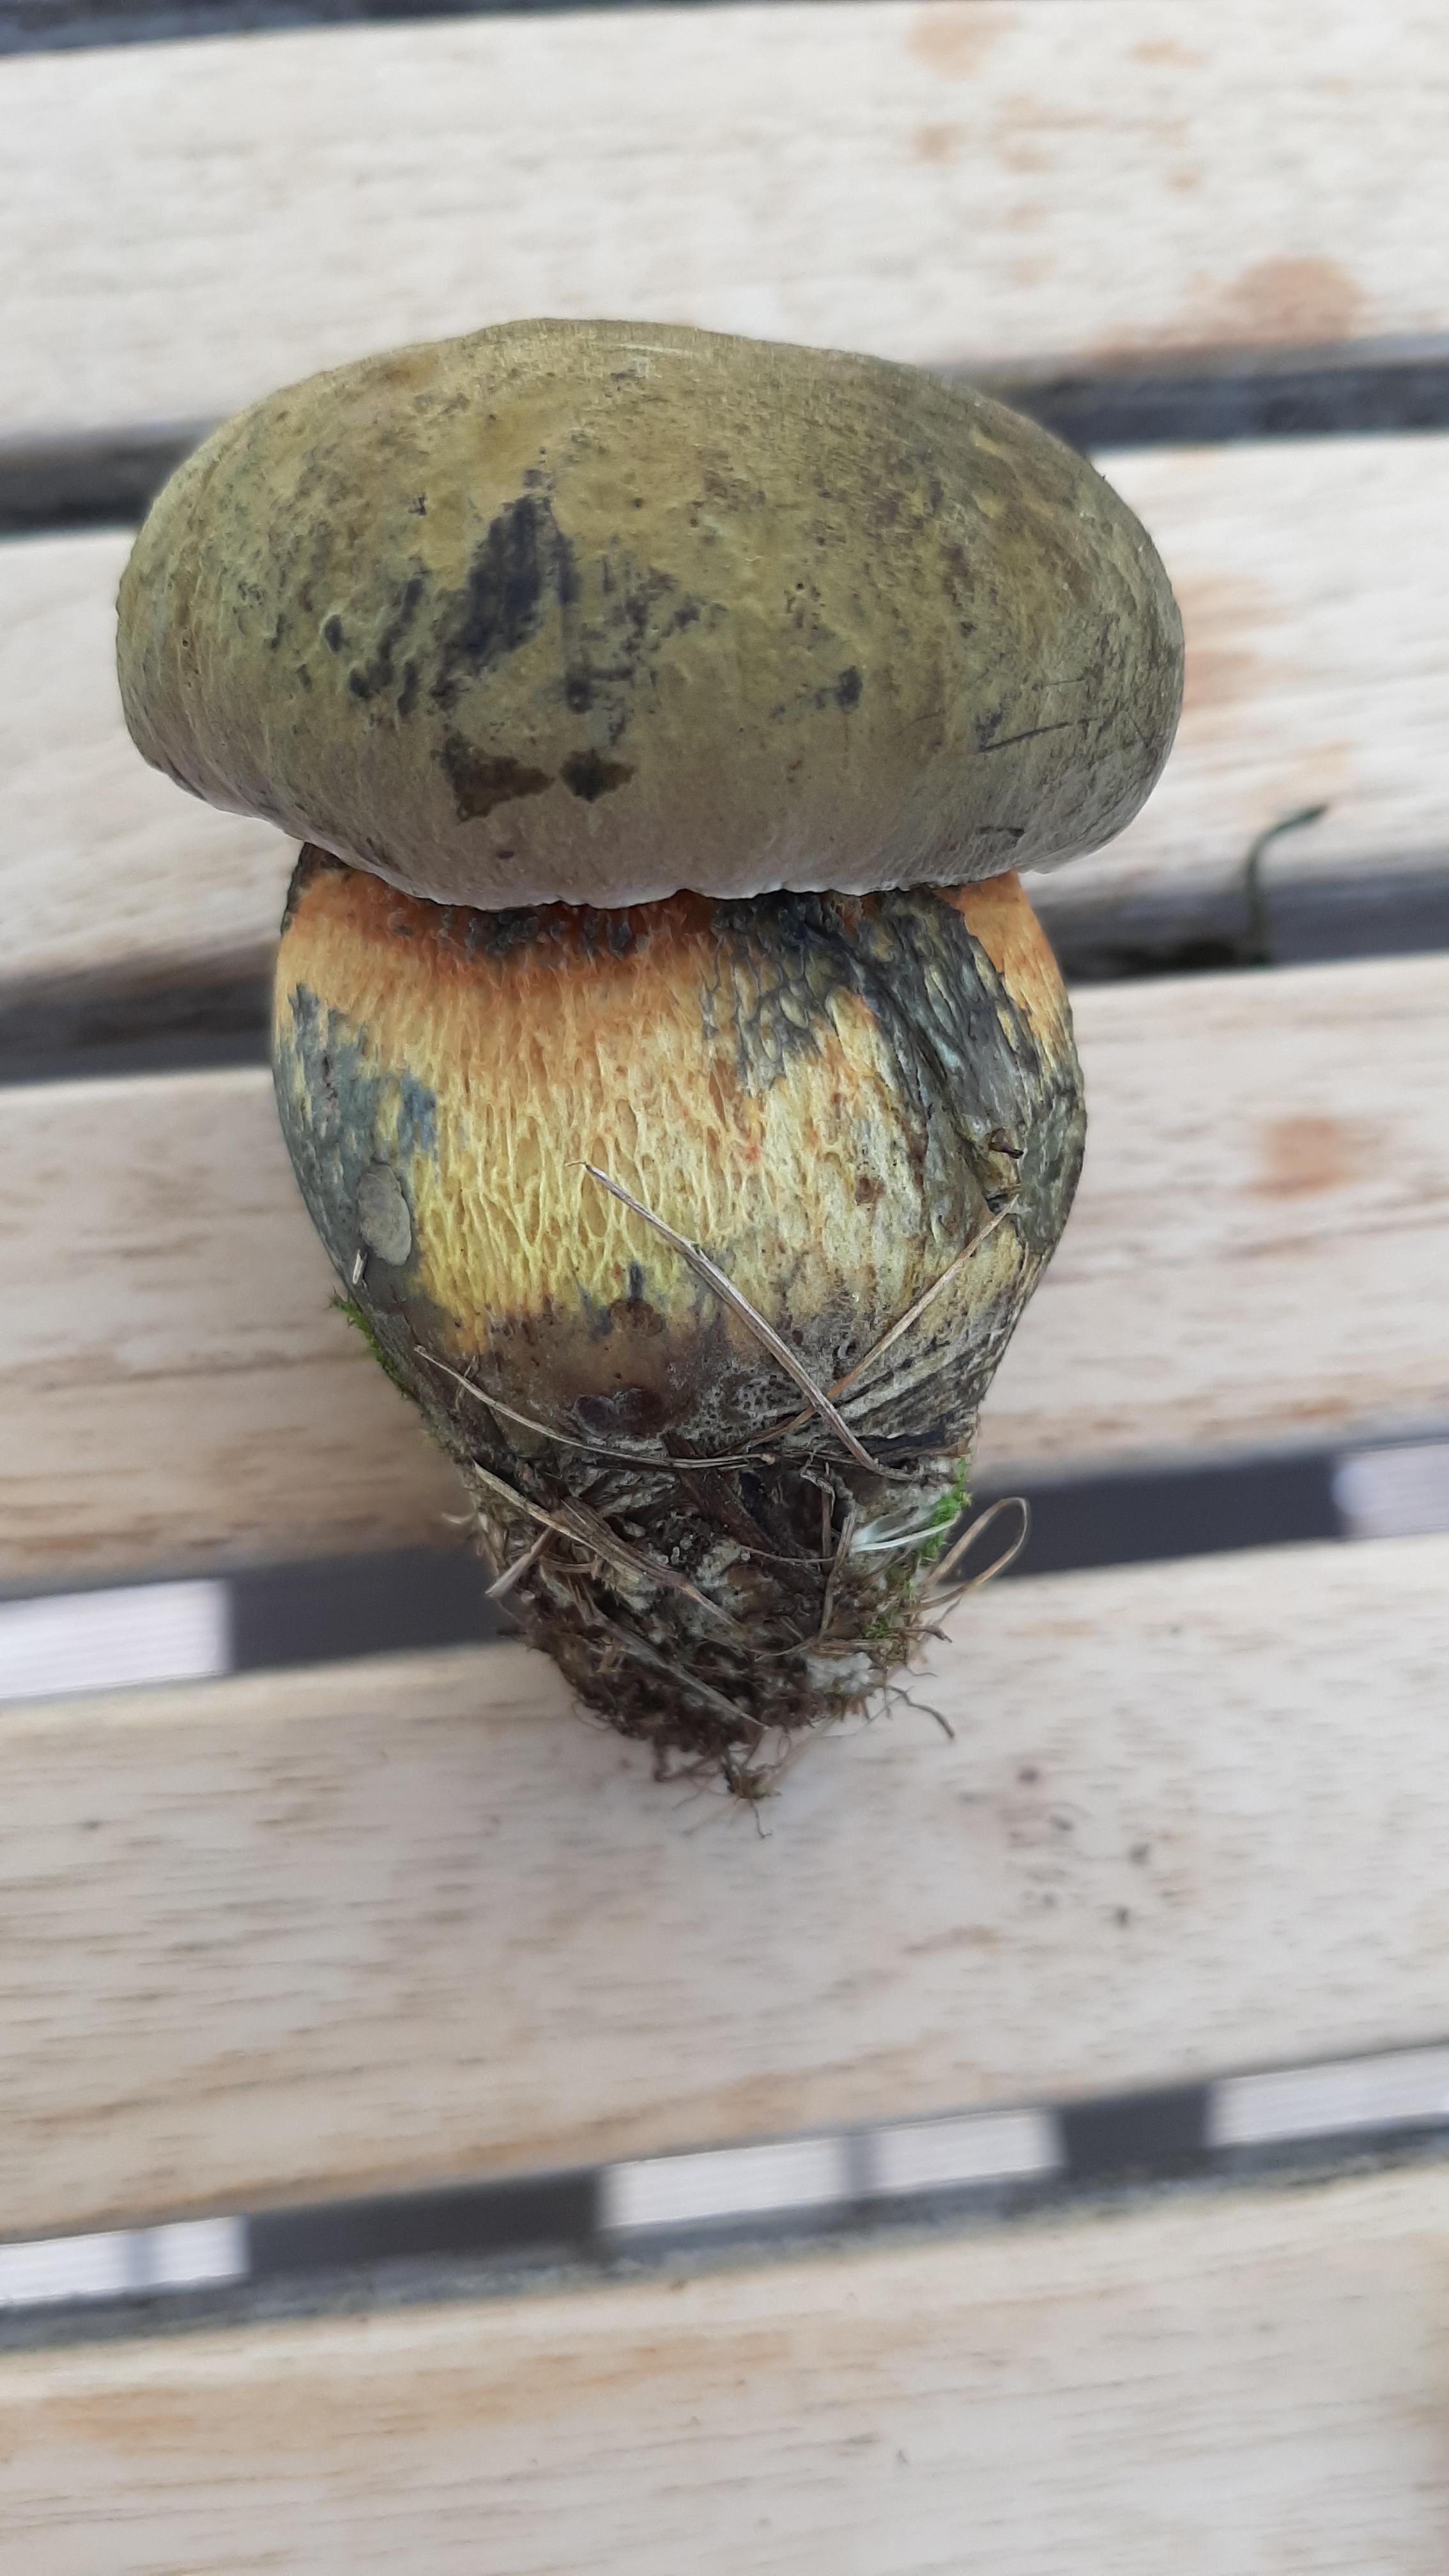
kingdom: Fungi
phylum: Basidiomycota
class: Agaricomycetes
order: Boletales
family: Boletaceae
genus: Suillellus
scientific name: Suillellus luridus
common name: netstokket indigorørhat
